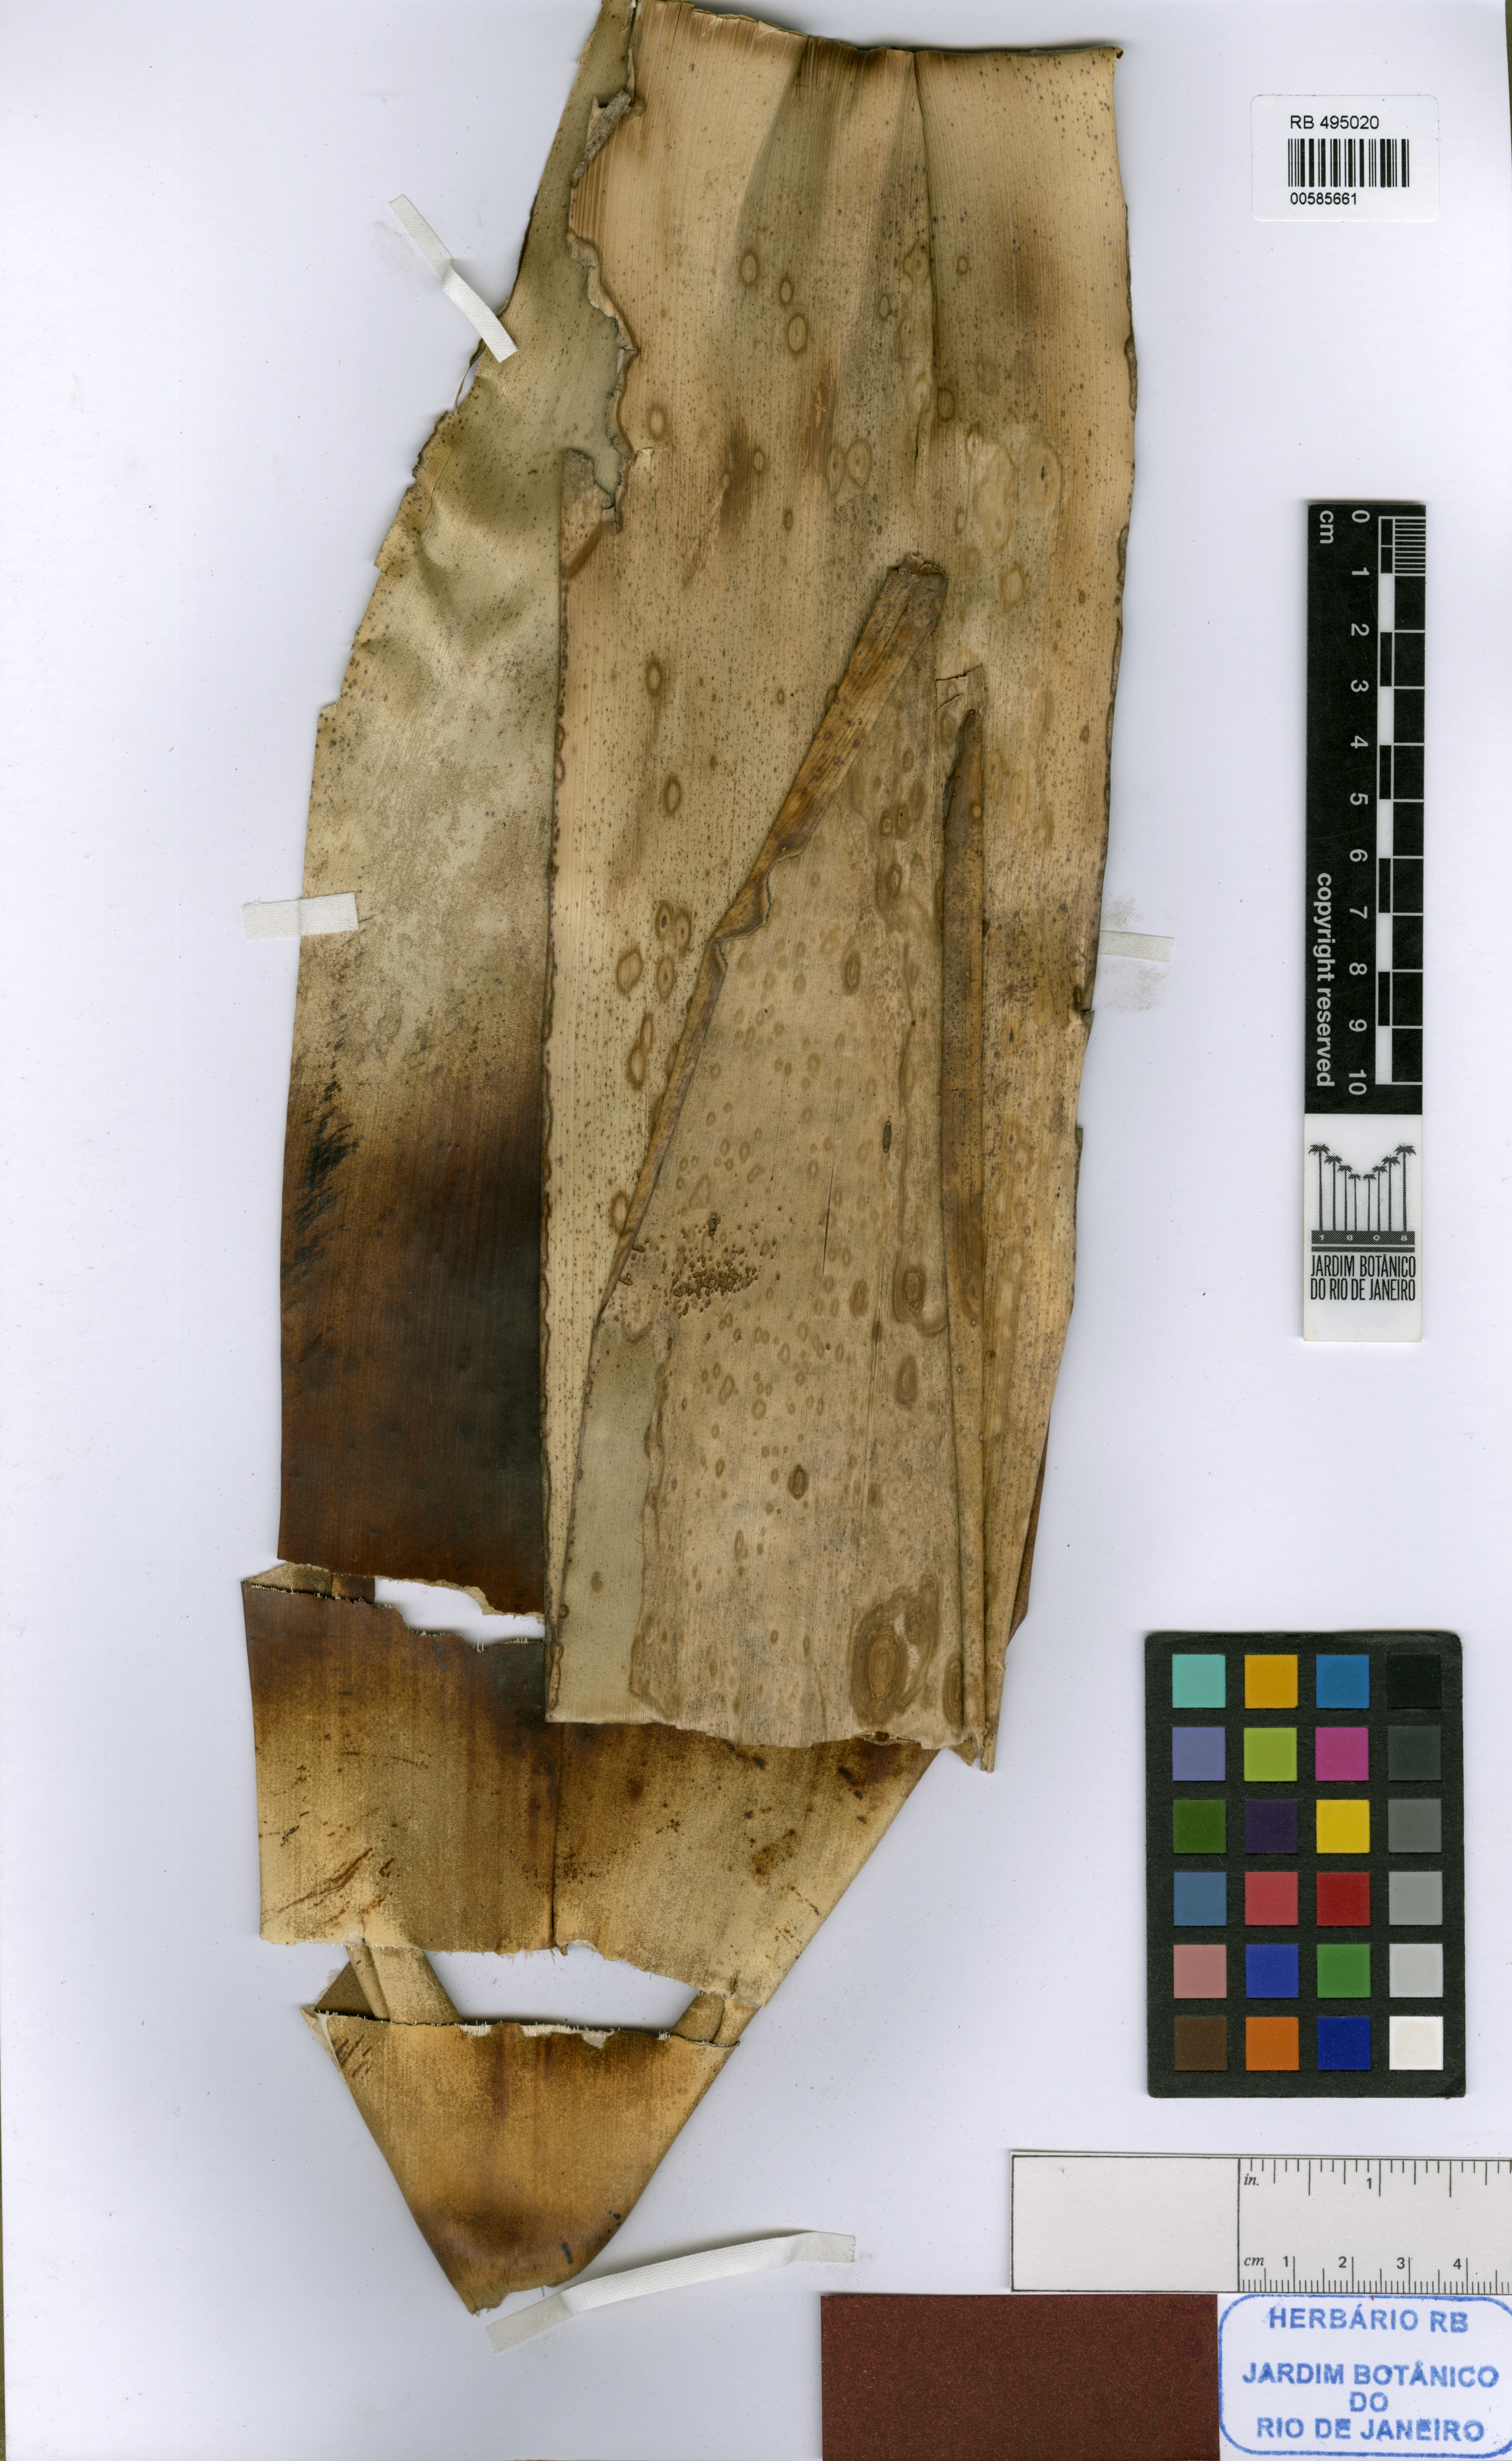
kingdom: Plantae
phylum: Tracheophyta
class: Liliopsida
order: Poales
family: Bromeliaceae
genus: Alcantarea
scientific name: Alcantarea trepida
